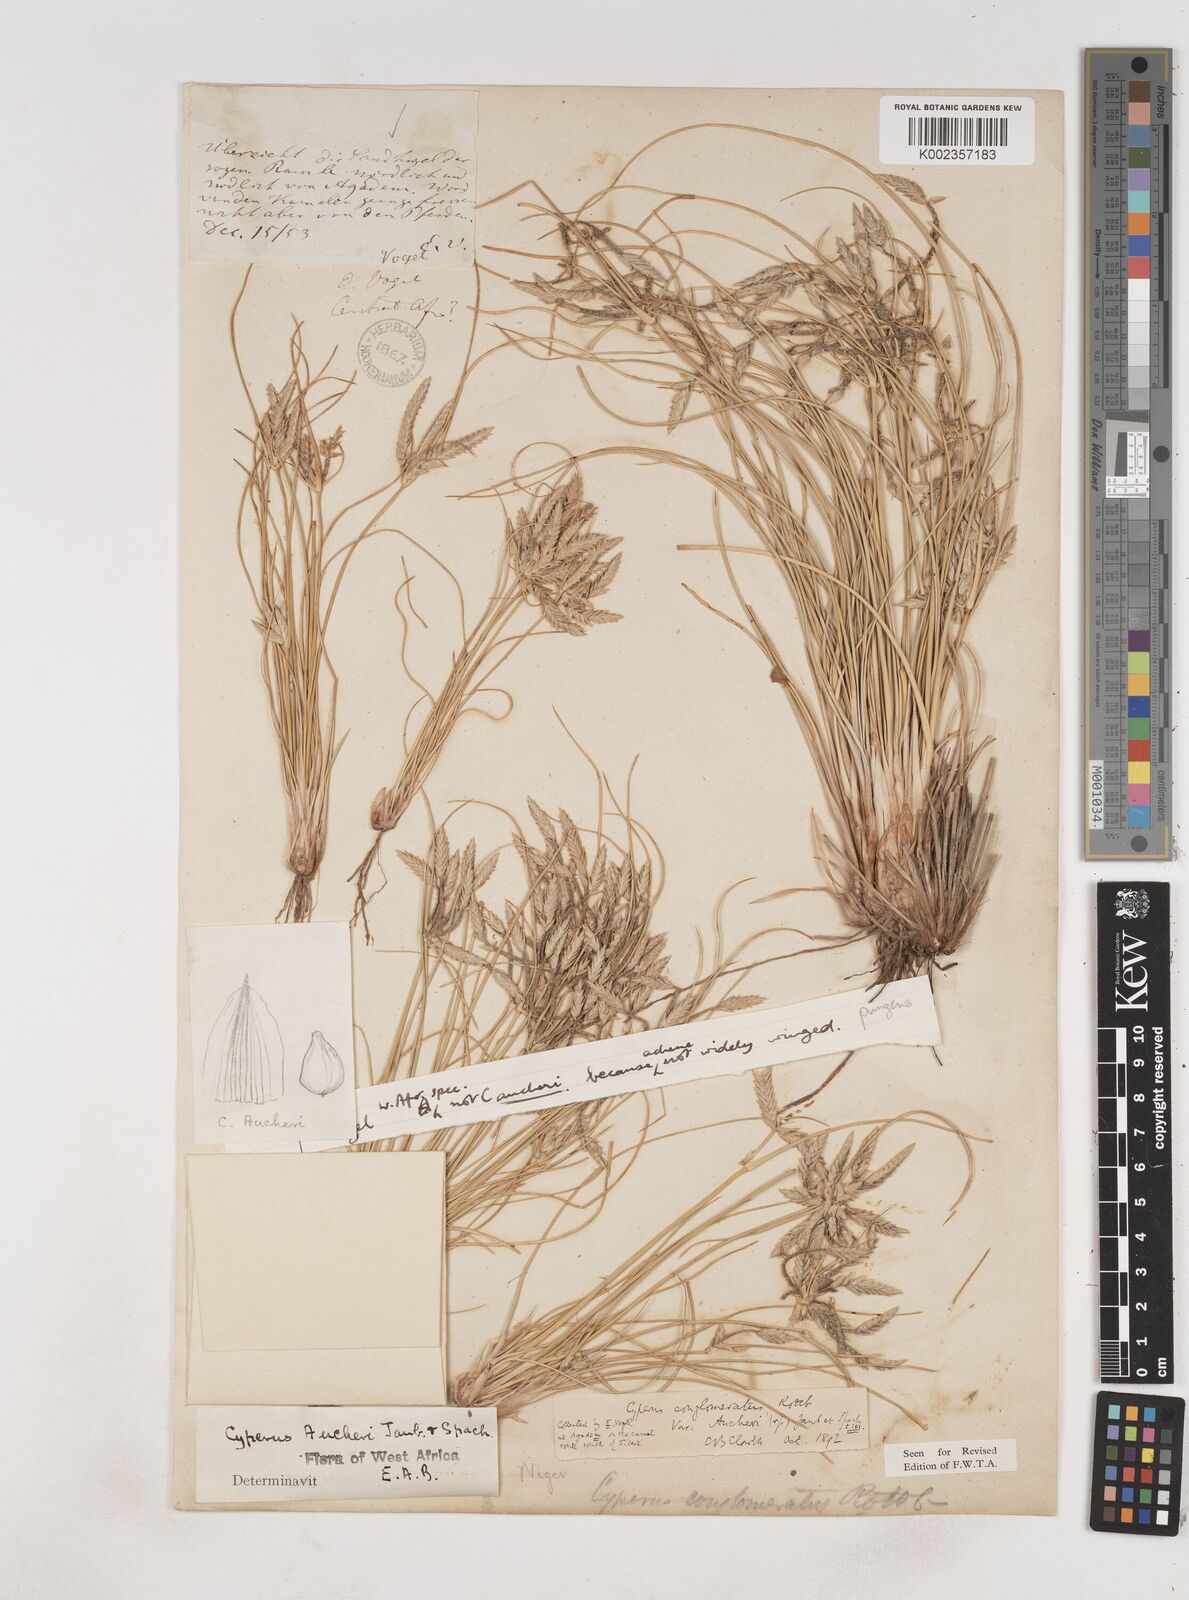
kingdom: Plantae
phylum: Tracheophyta
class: Liliopsida
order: Poales
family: Cyperaceae
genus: Cyperus
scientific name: Cyperus conglomeratus
